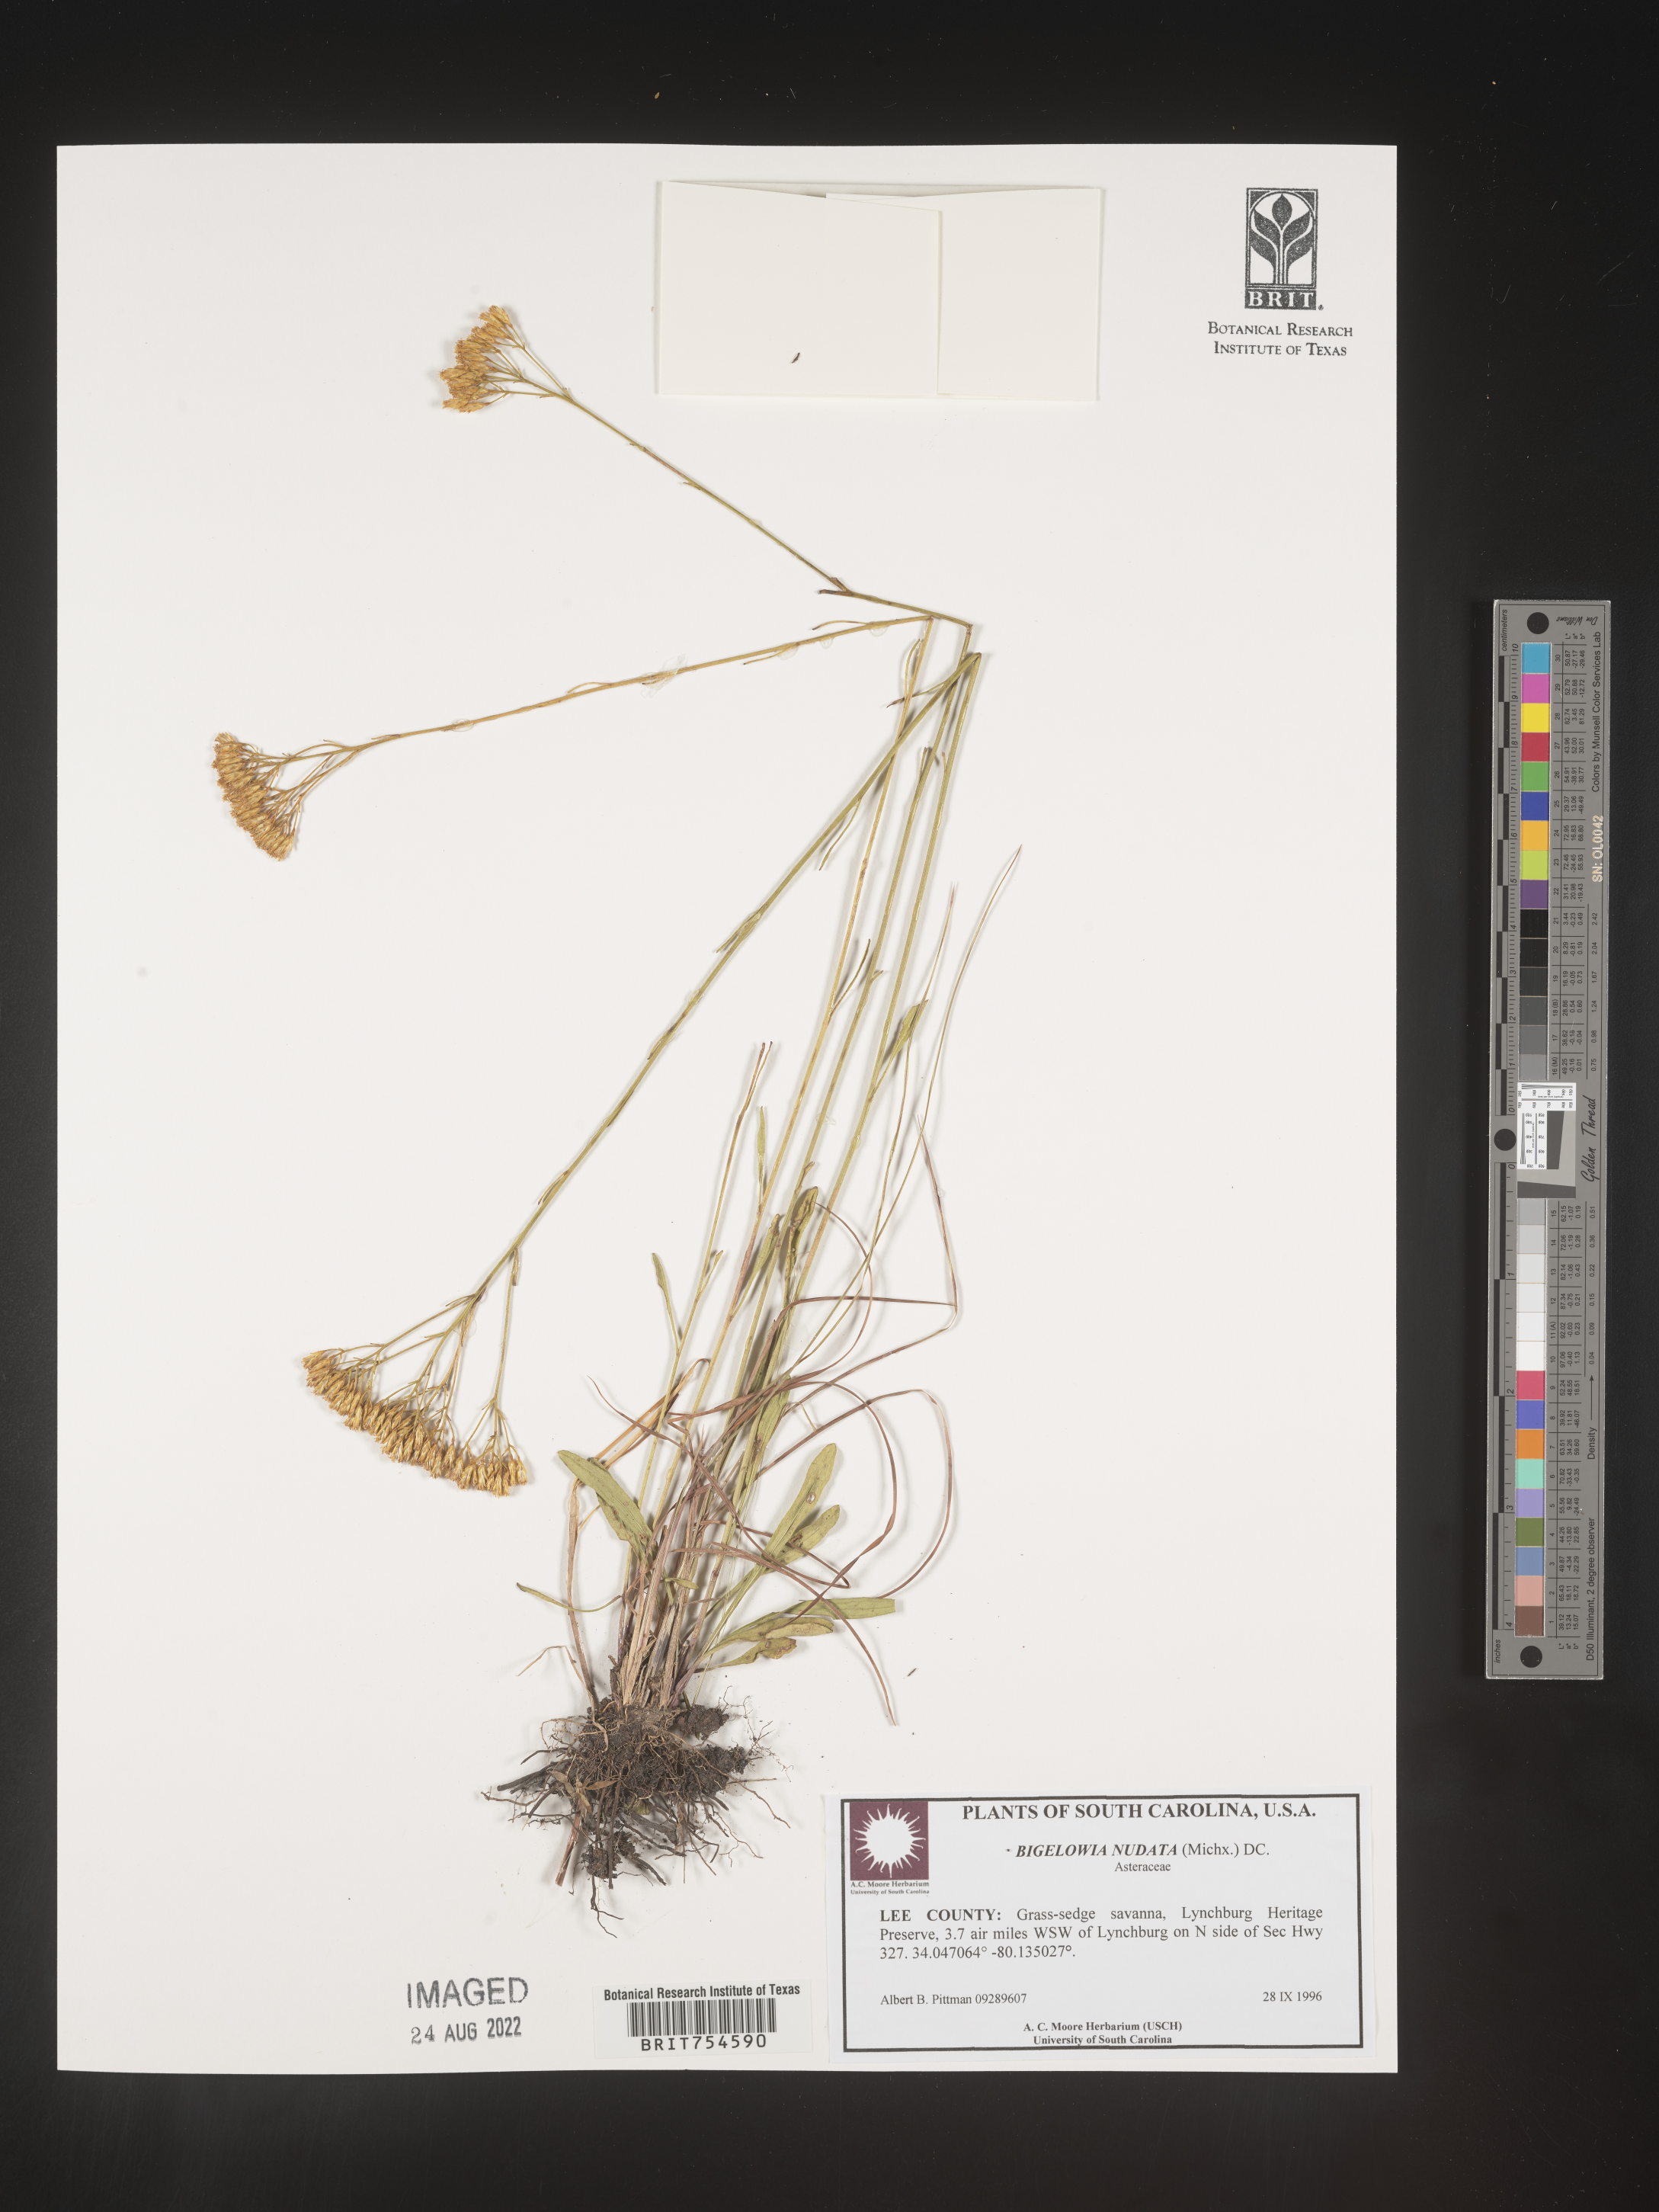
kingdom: Plantae
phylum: Tracheophyta
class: Magnoliopsida
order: Asterales
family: Asteraceae
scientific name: Asteraceae
